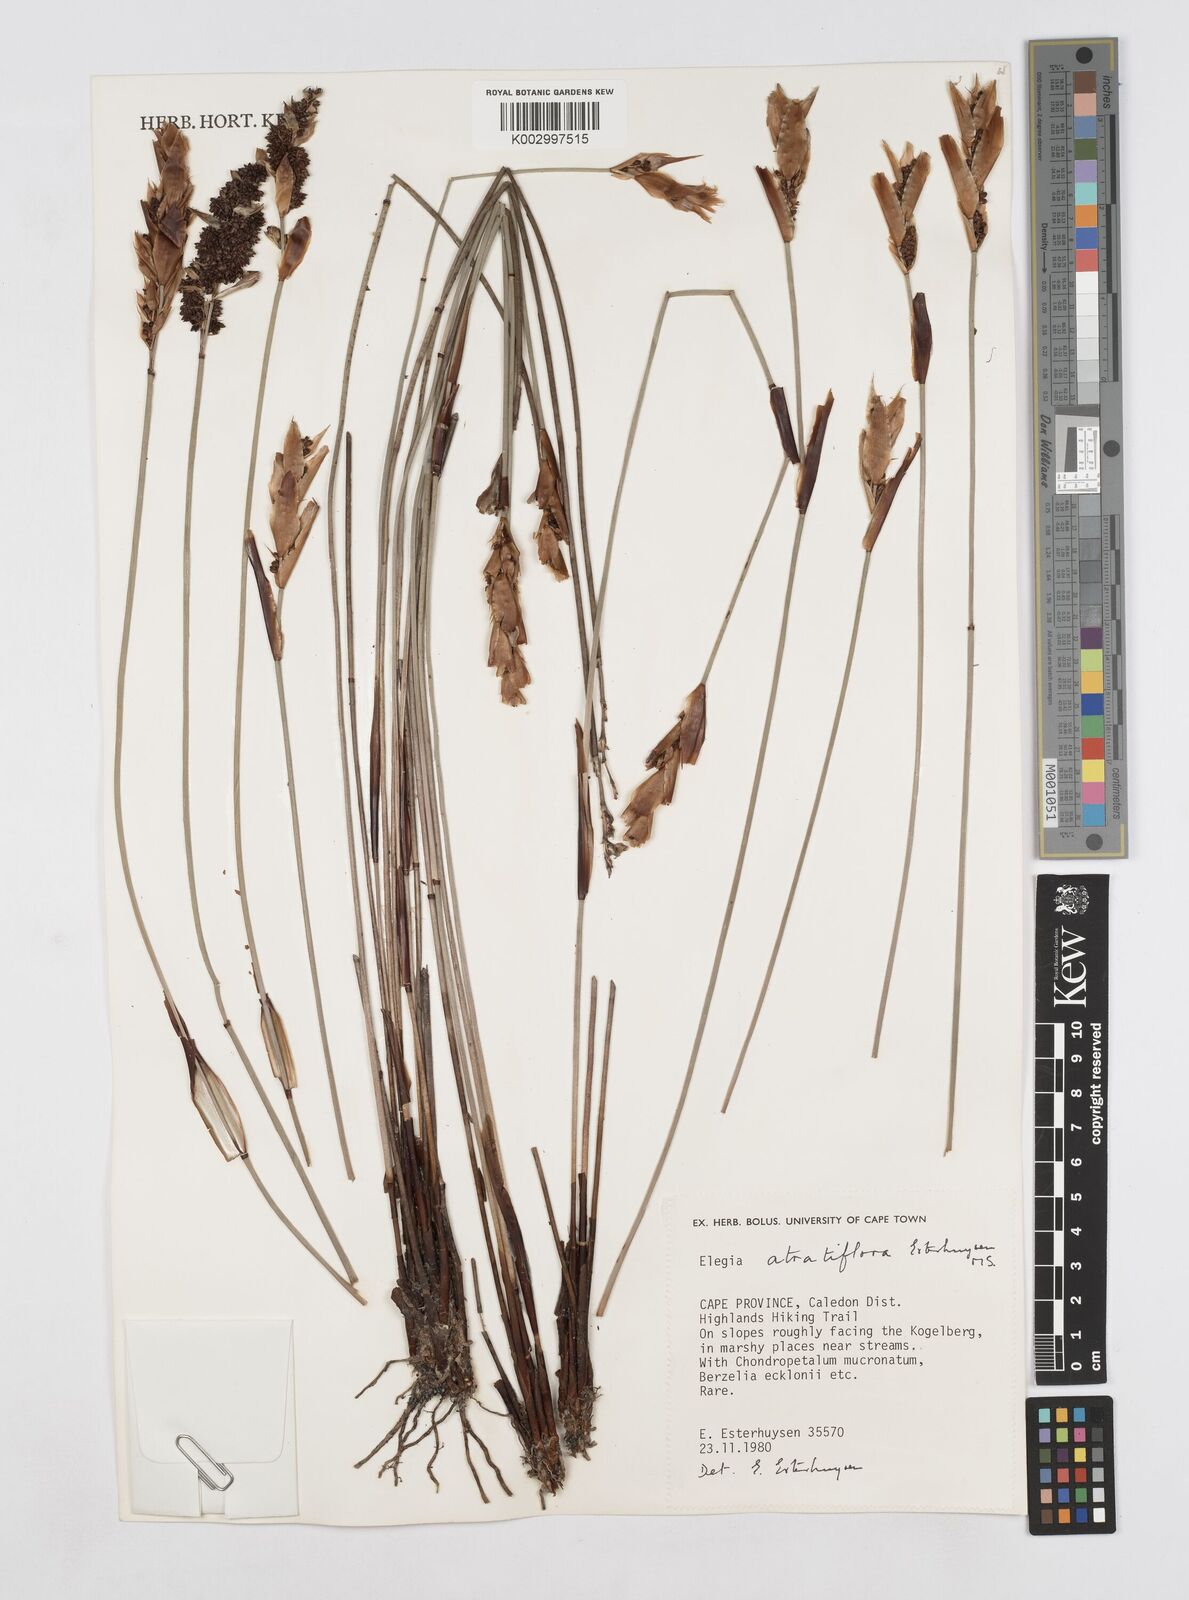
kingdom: Plantae
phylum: Tracheophyta
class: Liliopsida
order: Poales
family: Restionaceae
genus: Elegia
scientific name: Elegia atratiflora
